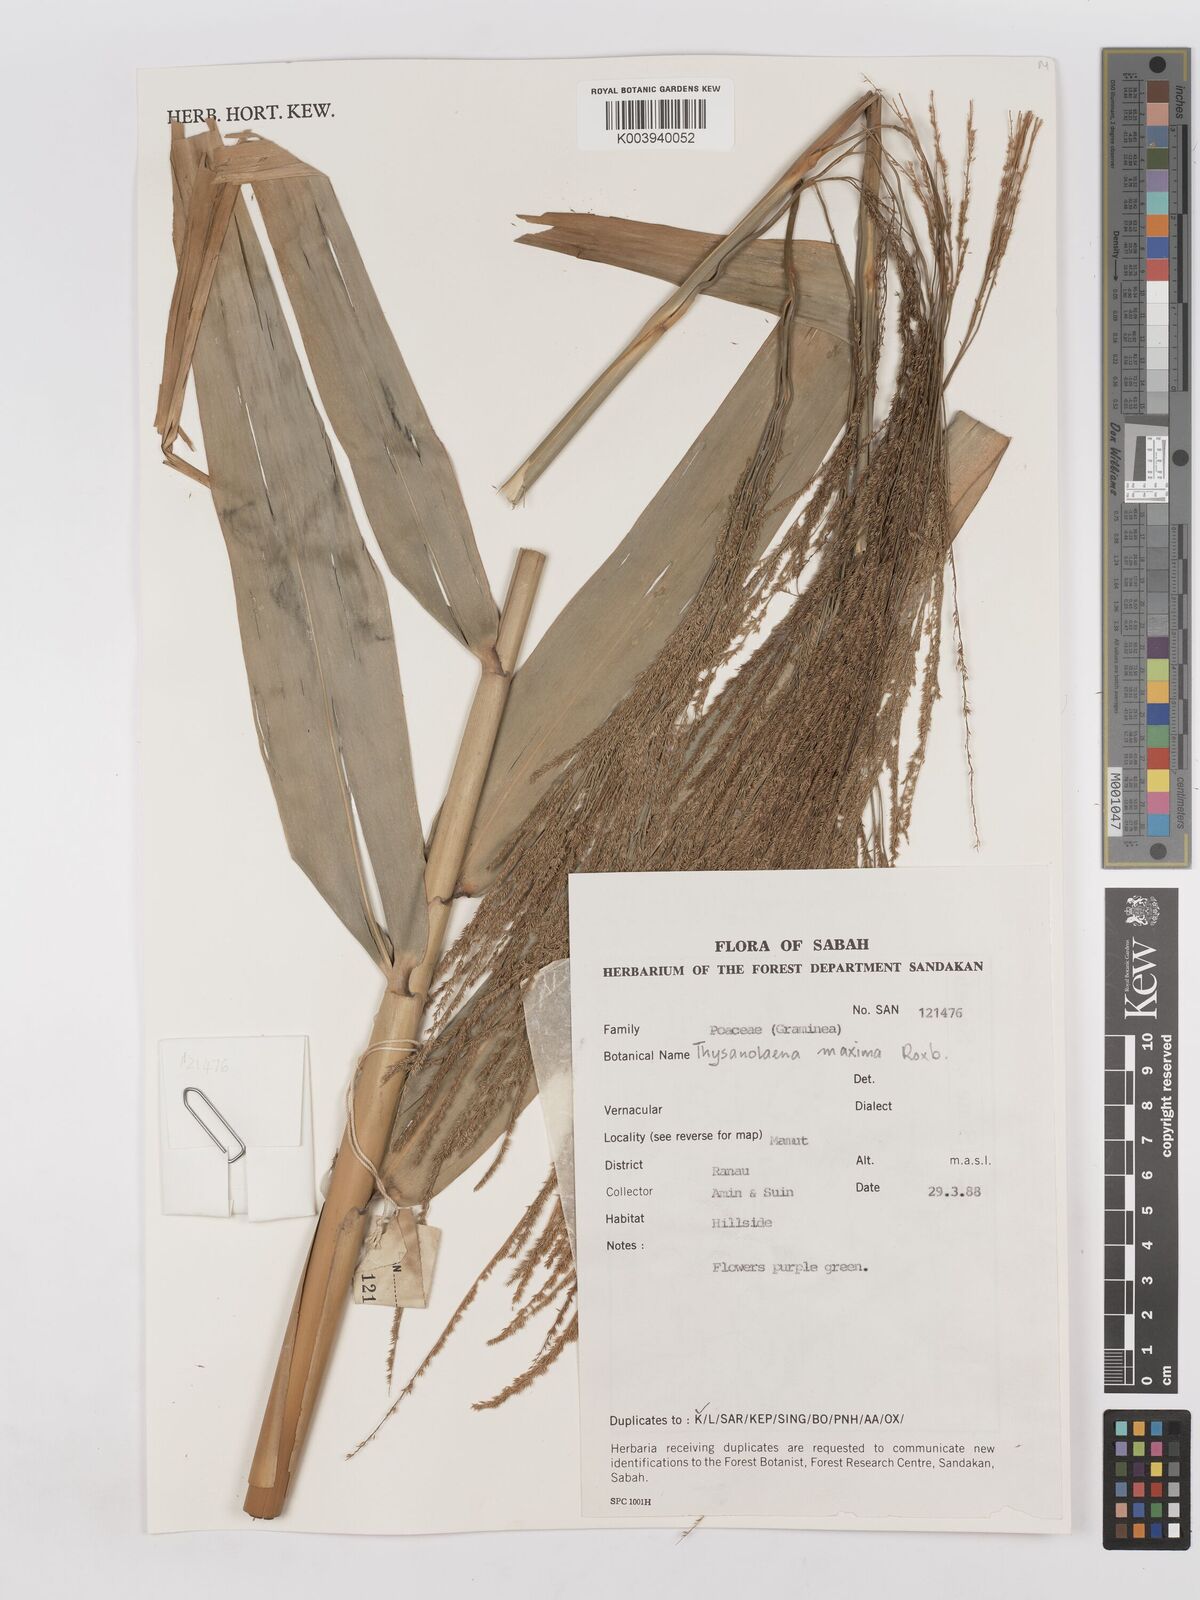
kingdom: Plantae
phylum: Tracheophyta
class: Liliopsida
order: Poales
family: Poaceae
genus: Thysanolaena
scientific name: Thysanolaena latifolia
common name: Tiger grass
